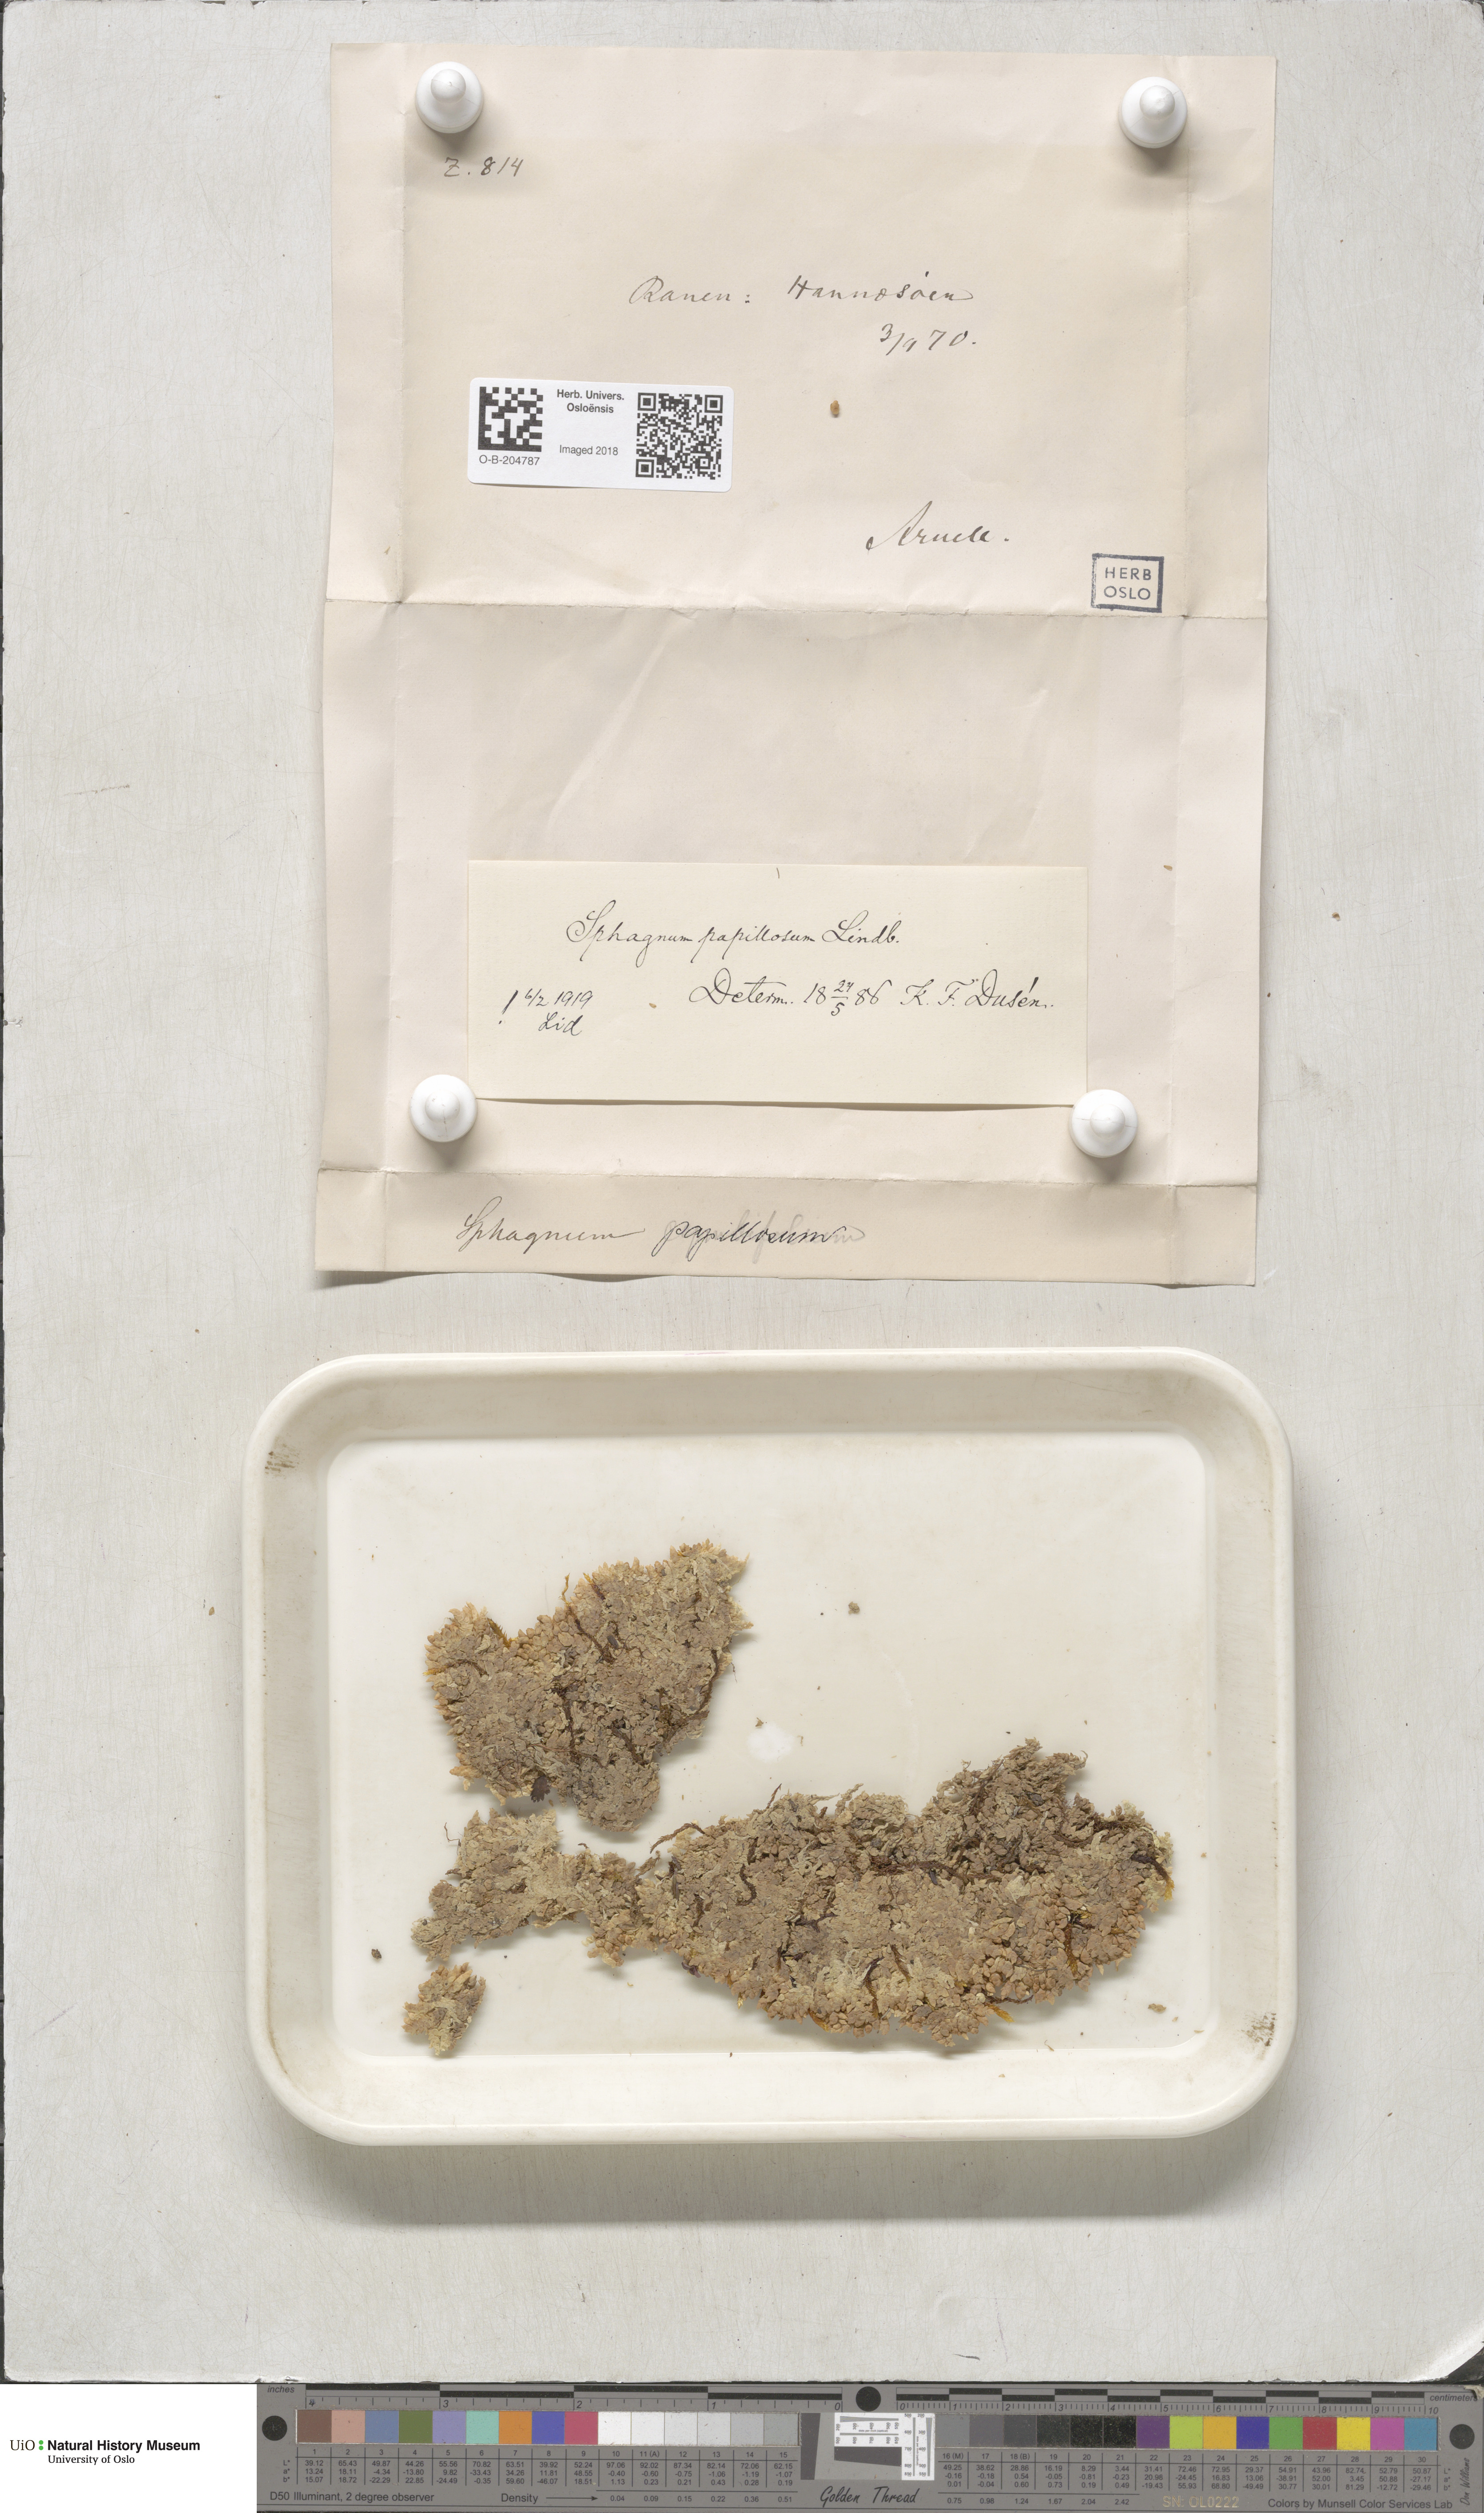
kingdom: Plantae
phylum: Bryophyta
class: Sphagnopsida
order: Sphagnales
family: Sphagnaceae
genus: Sphagnum
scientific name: Sphagnum papillosum
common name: Papillose peat moss
